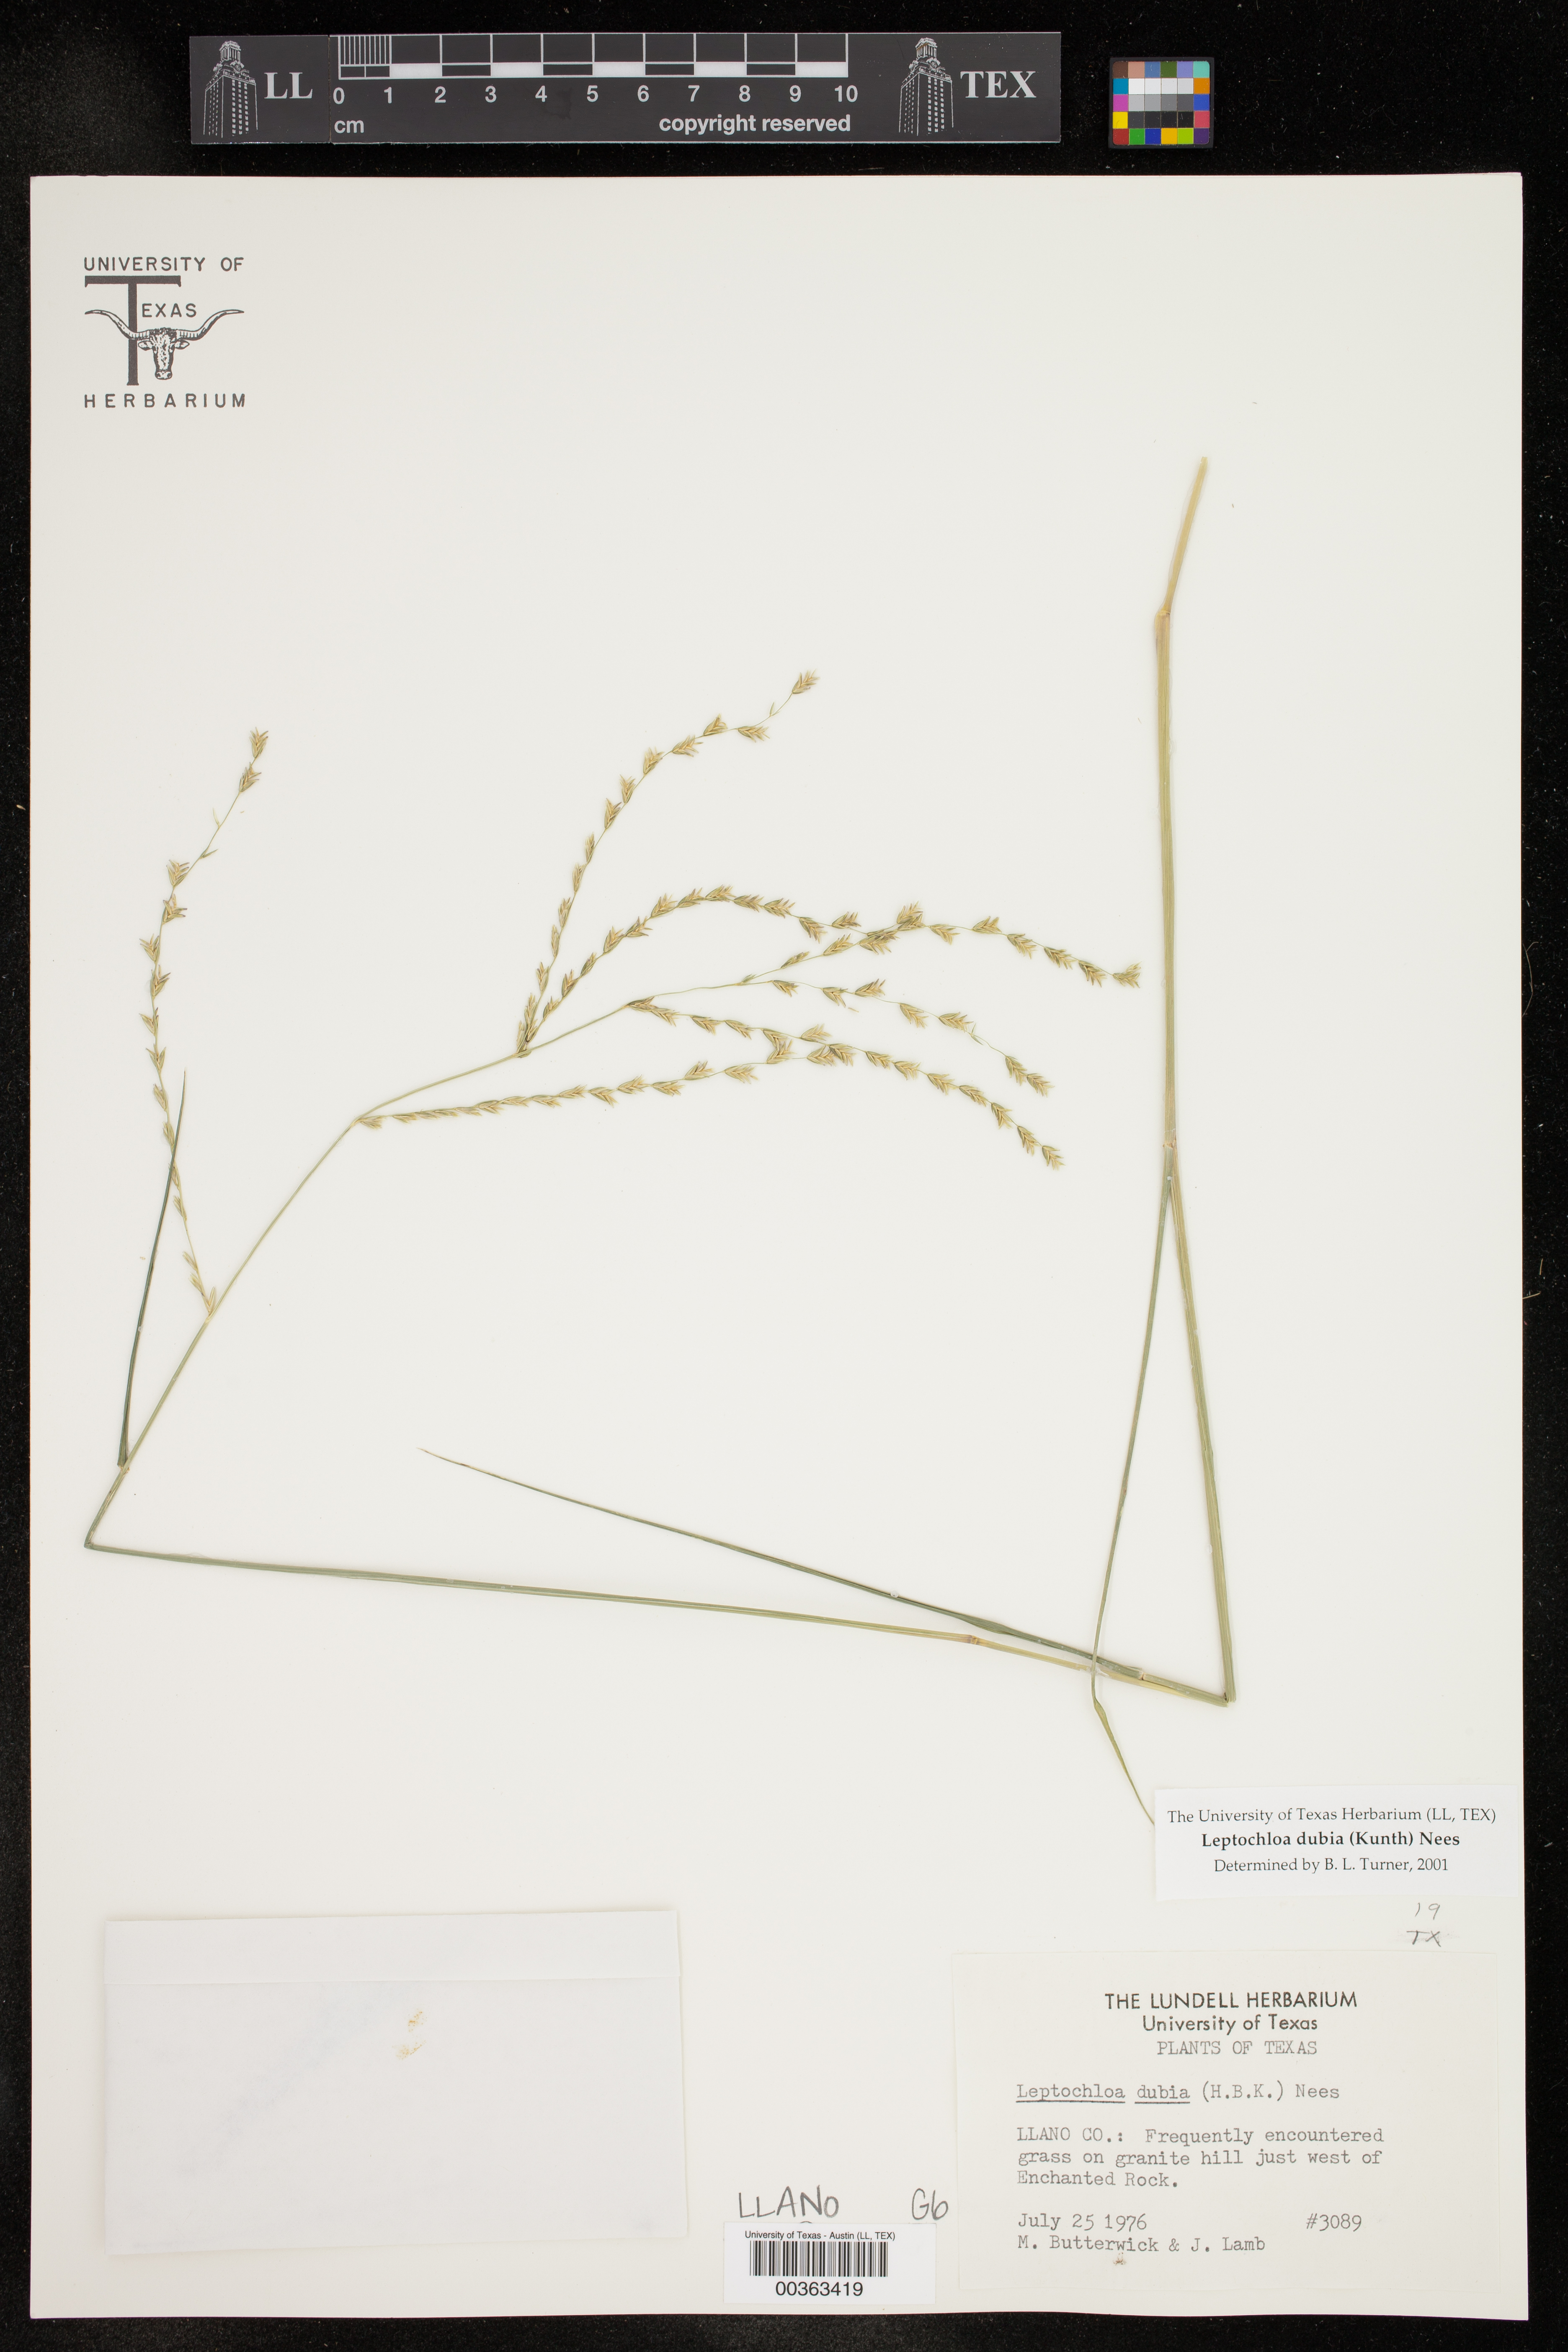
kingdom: Plantae
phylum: Tracheophyta
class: Liliopsida
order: Poales
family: Poaceae
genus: Disakisperma
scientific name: Disakisperma dubium
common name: Green sprangletop
